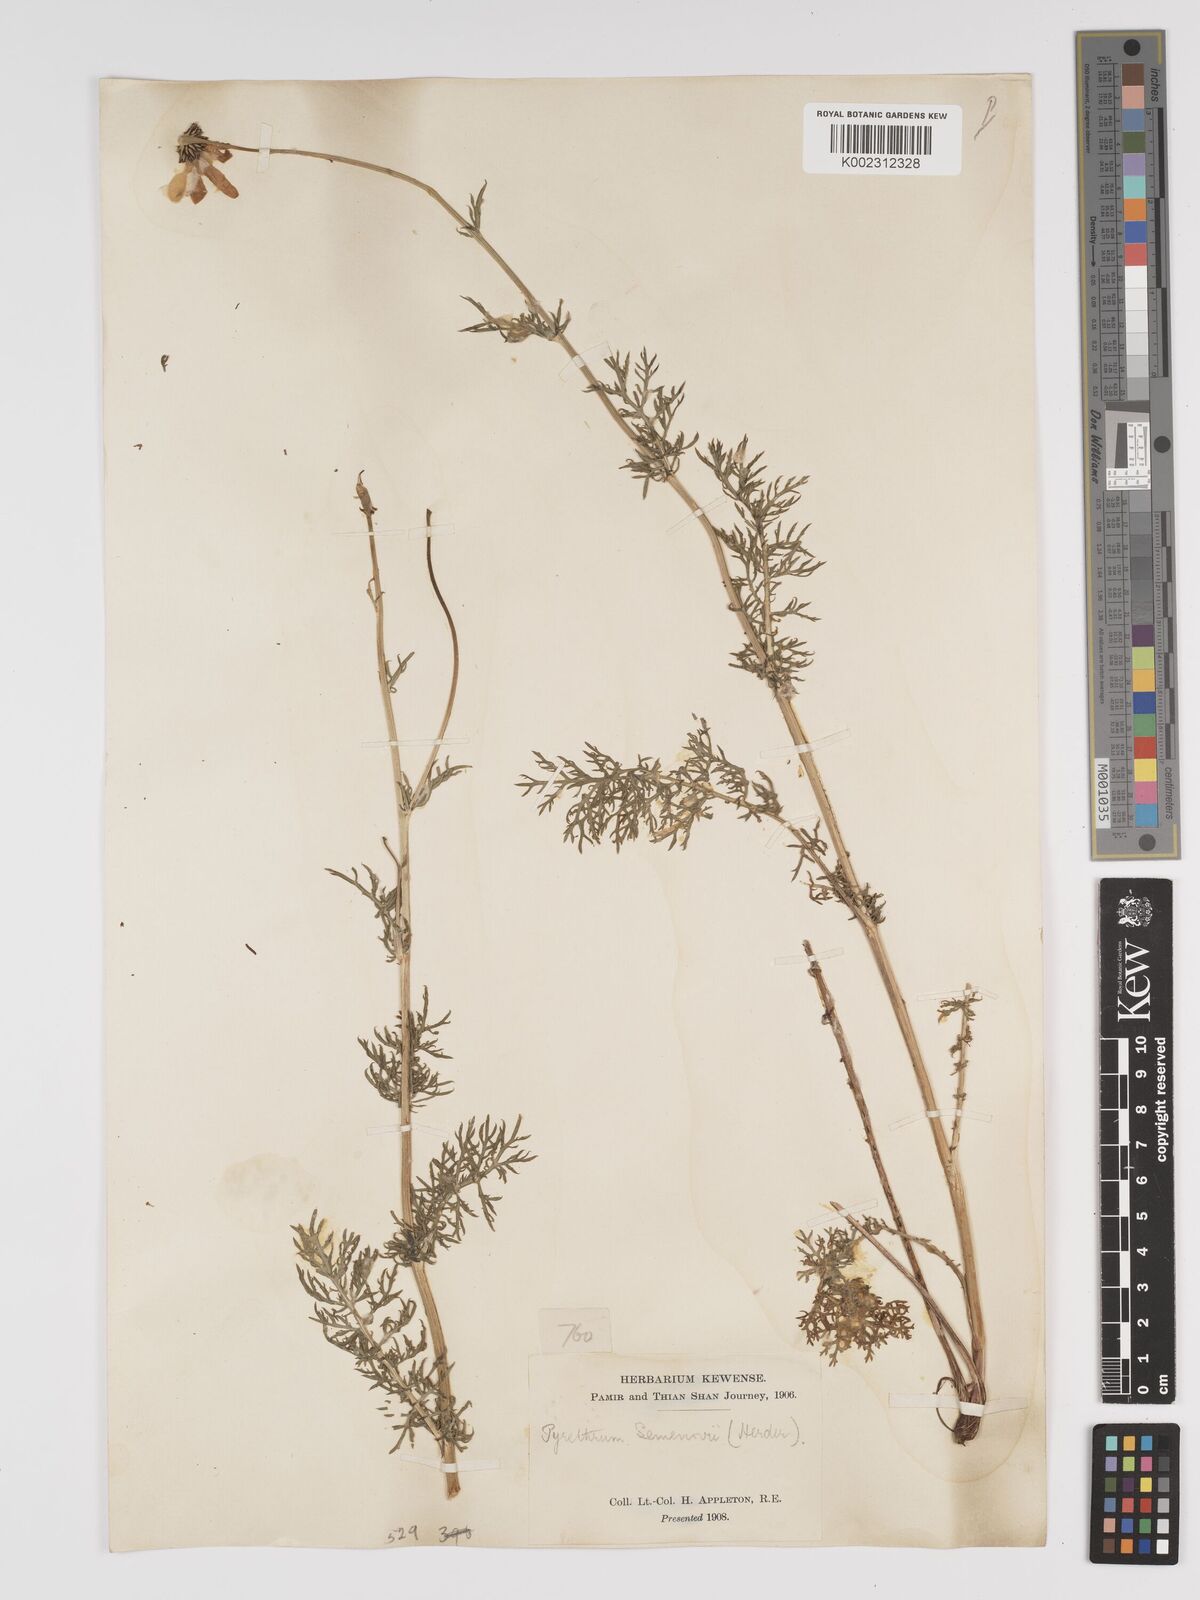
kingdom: Plantae
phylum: Tracheophyta
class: Magnoliopsida
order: Asterales
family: Asteraceae
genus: Tanacetum
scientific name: Tanacetum alatavicum
